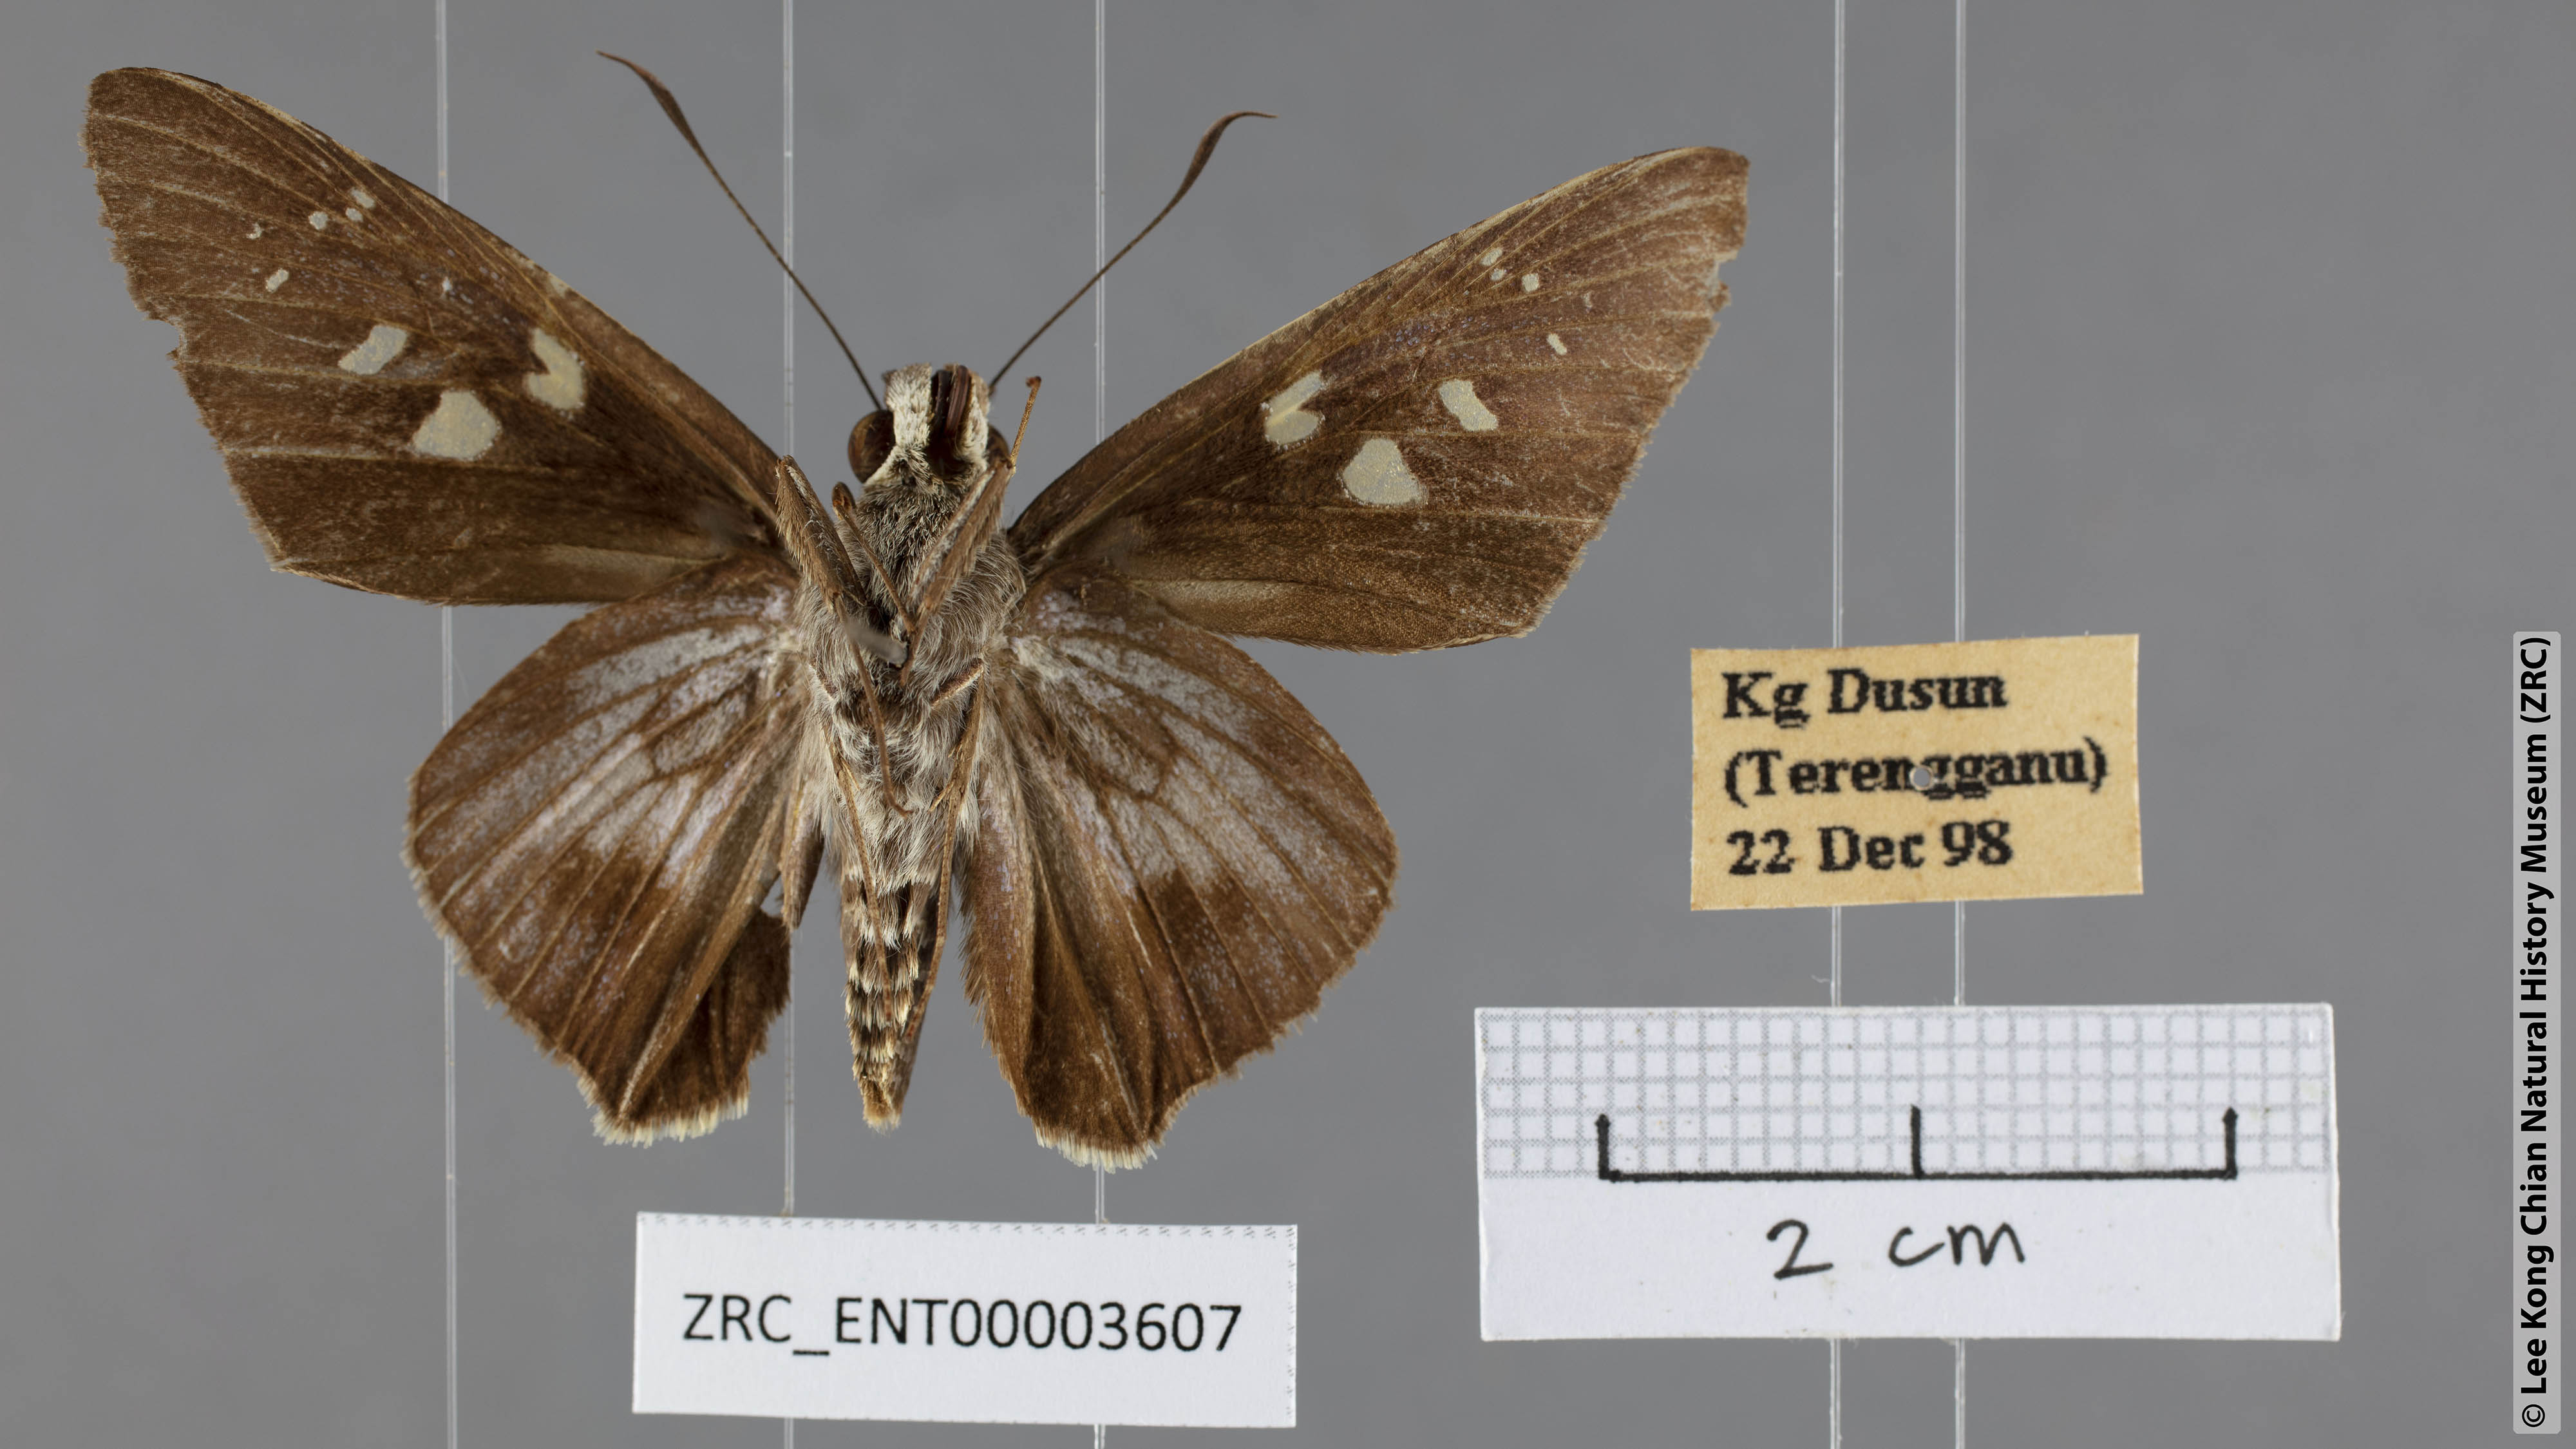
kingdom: Animalia
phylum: Arthropoda
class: Insecta
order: Lepidoptera
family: Hesperiidae
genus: Unkana
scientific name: Unkana ambasa
